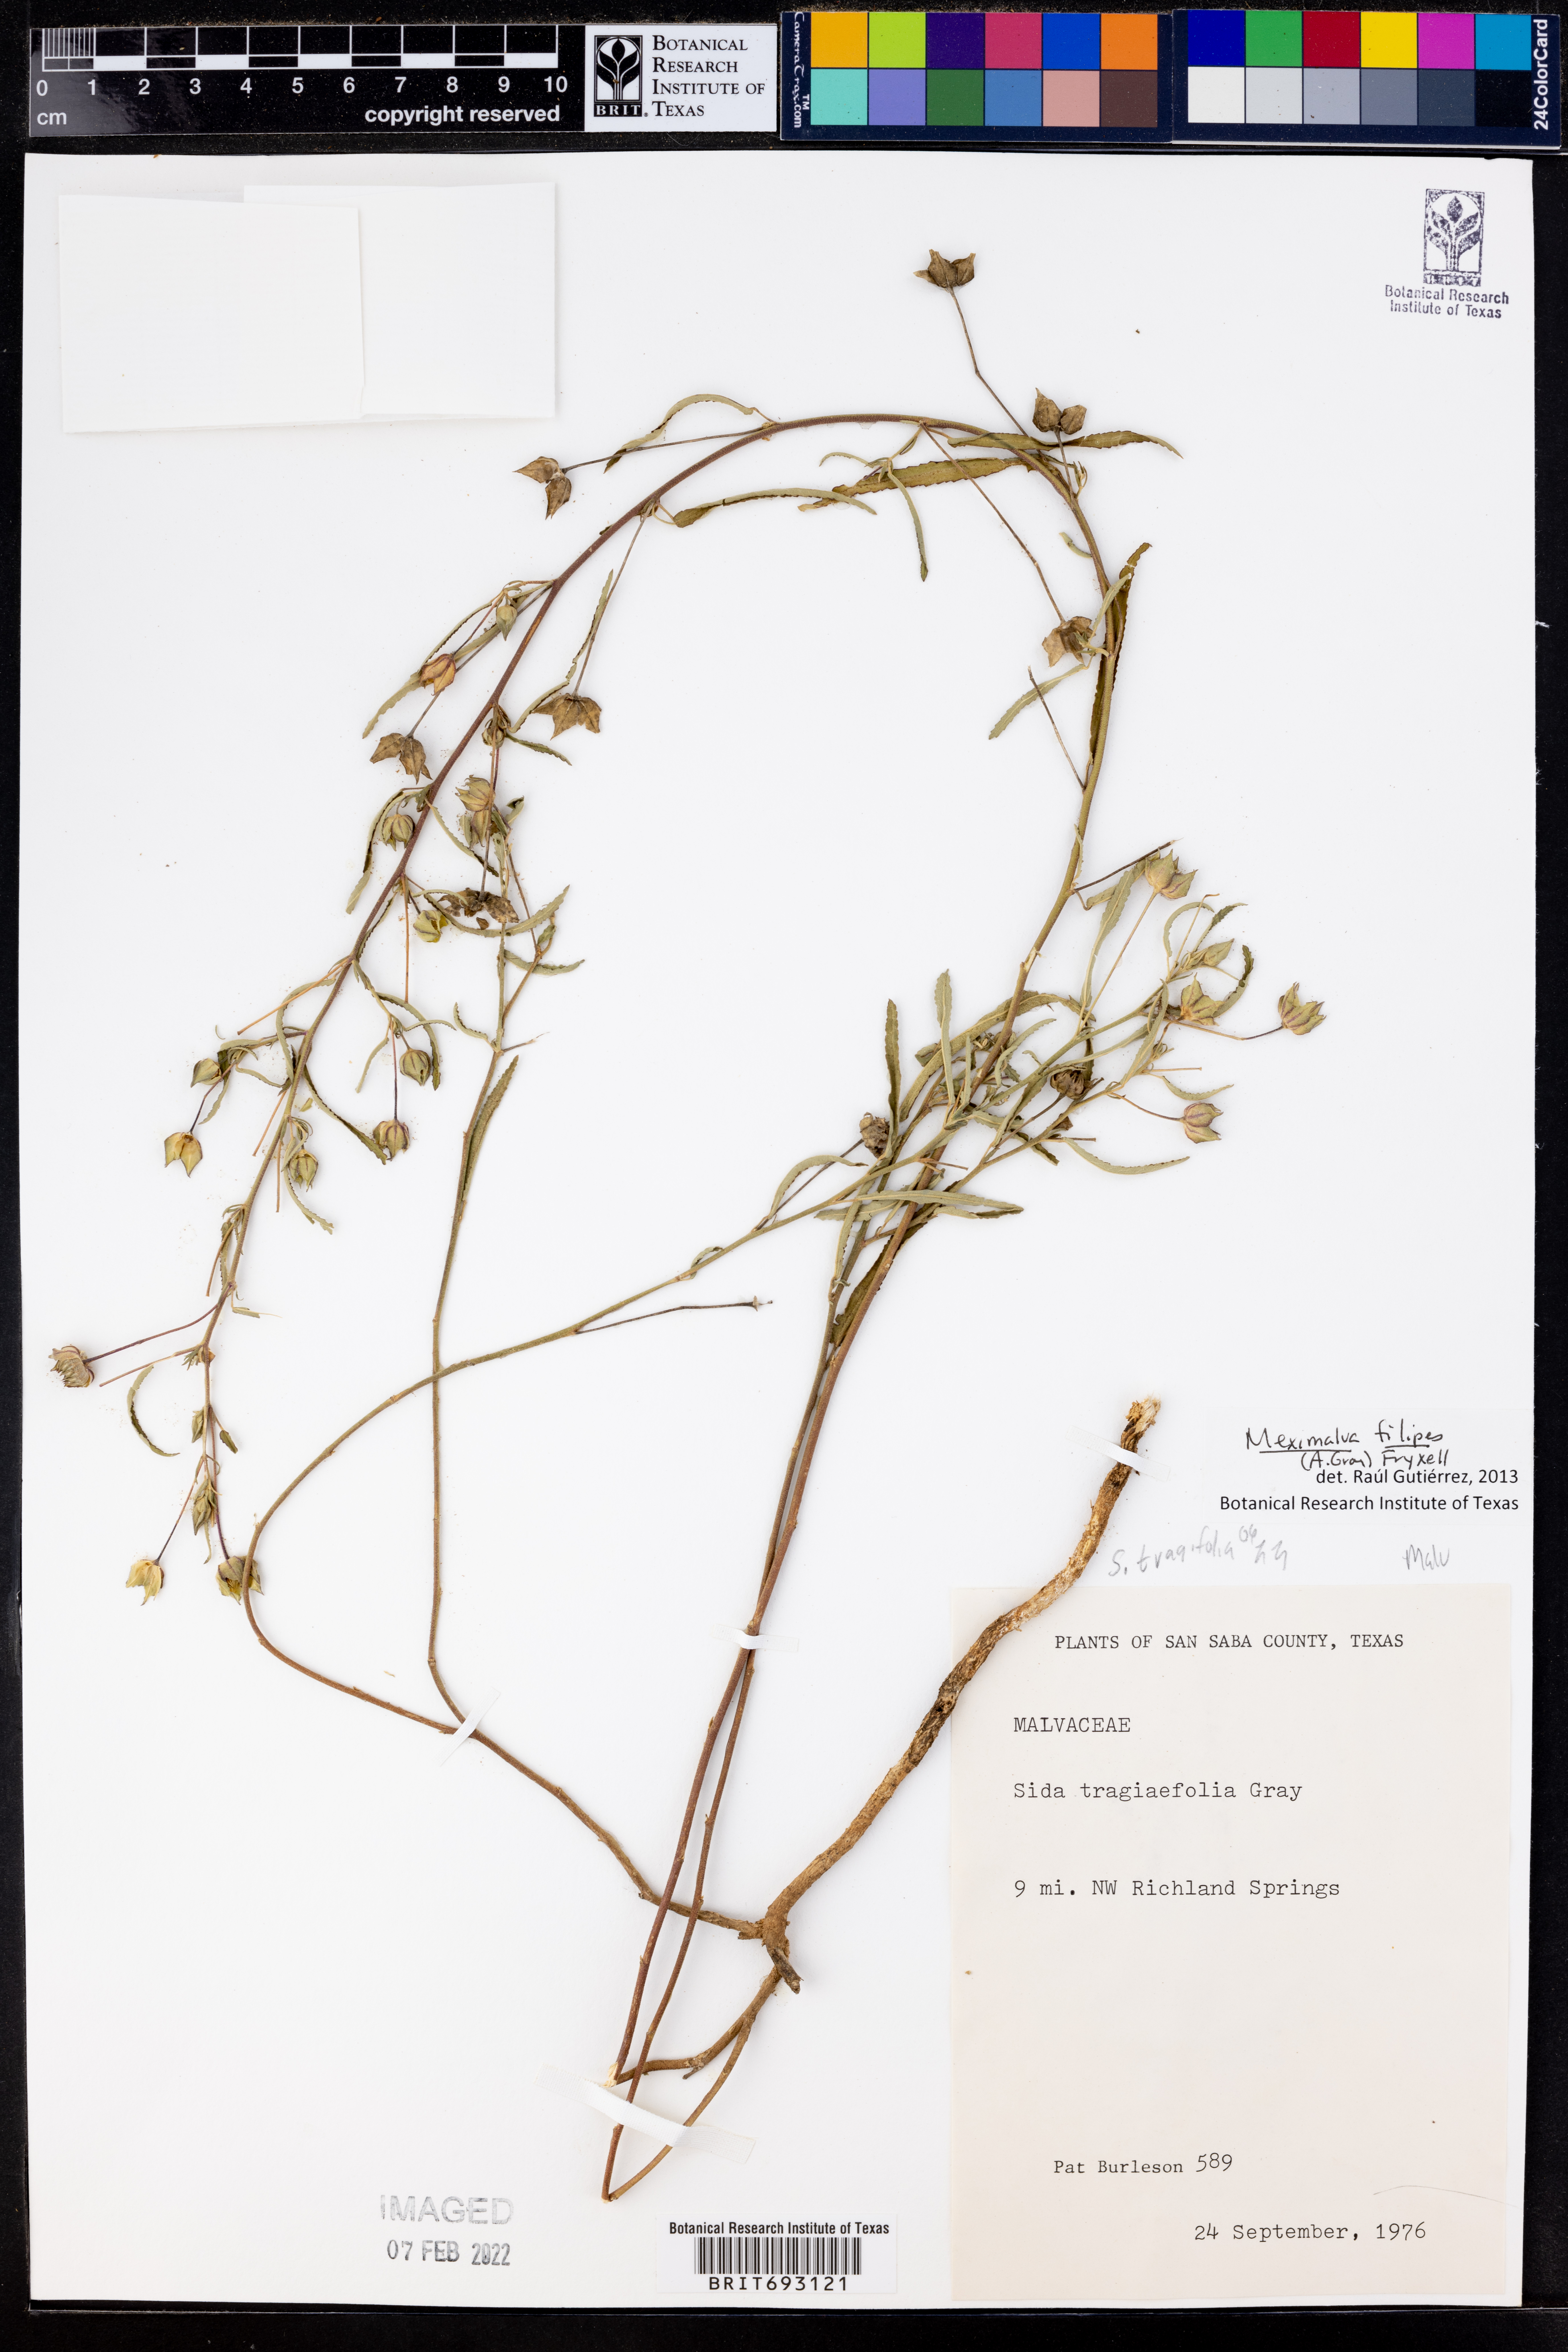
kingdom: Plantae
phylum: Tracheophyta
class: Magnoliopsida
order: Malvales
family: Malvaceae
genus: Meximalva
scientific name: Meximalva filipes
